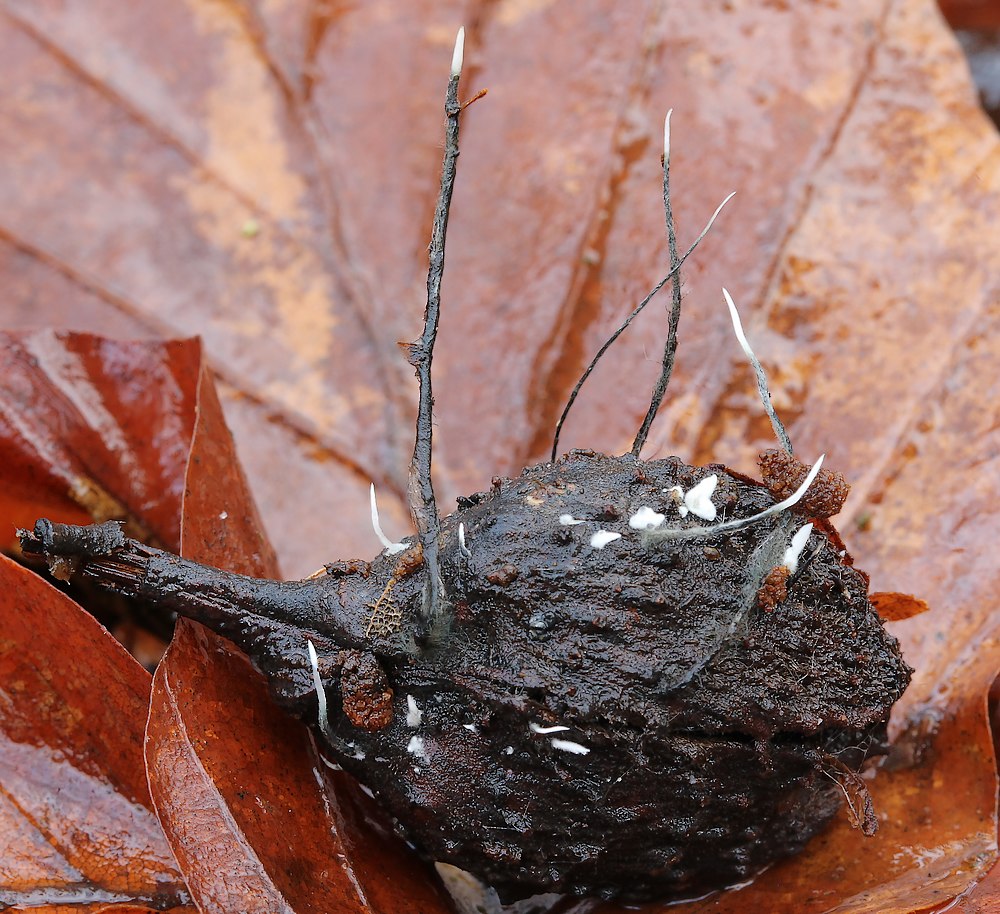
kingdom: Fungi
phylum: Ascomycota
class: Sordariomycetes
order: Xylariales
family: Xylariaceae
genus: Xylaria
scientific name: Xylaria carpophila
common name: bogskål-stødsvamp
